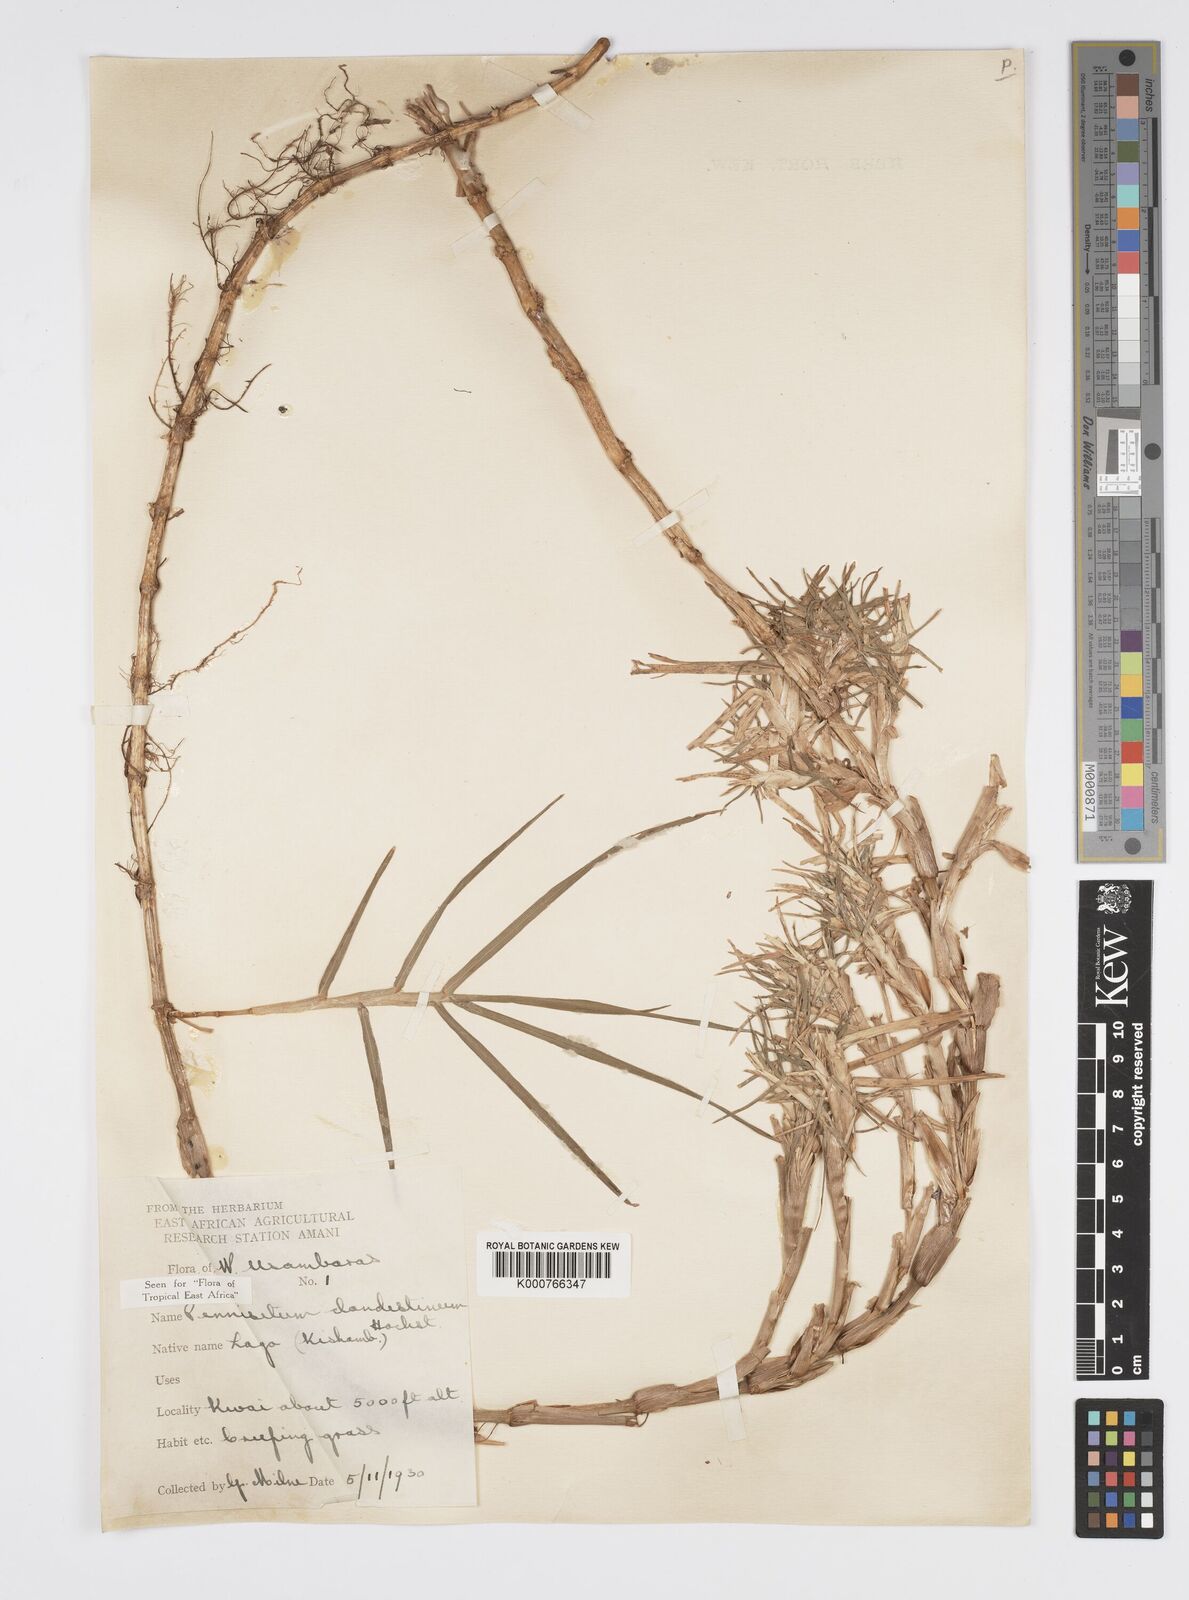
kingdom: Plantae
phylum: Tracheophyta
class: Liliopsida
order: Poales
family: Poaceae
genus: Cenchrus
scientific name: Cenchrus clandestinus
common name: Kikuyugrass
